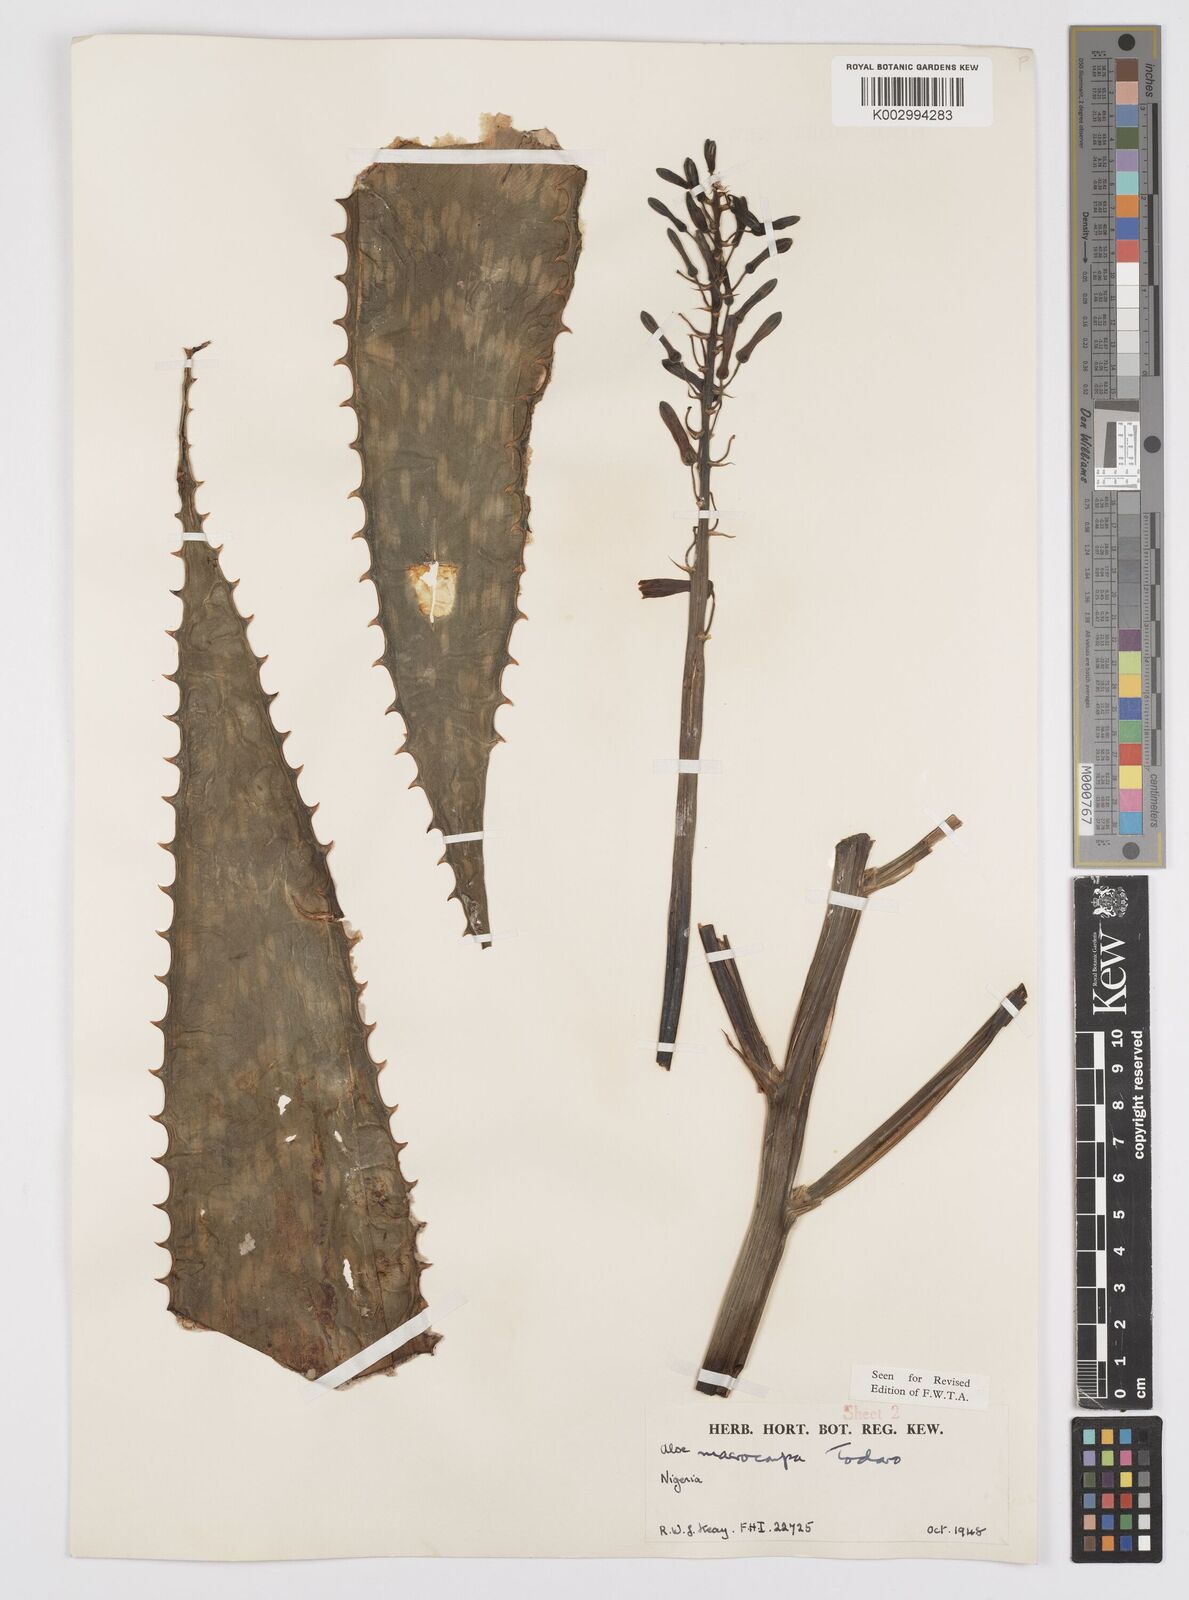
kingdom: Plantae
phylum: Tracheophyta
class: Liliopsida
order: Asparagales
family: Asphodelaceae
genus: Aloe
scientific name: Aloe macrocarpa
